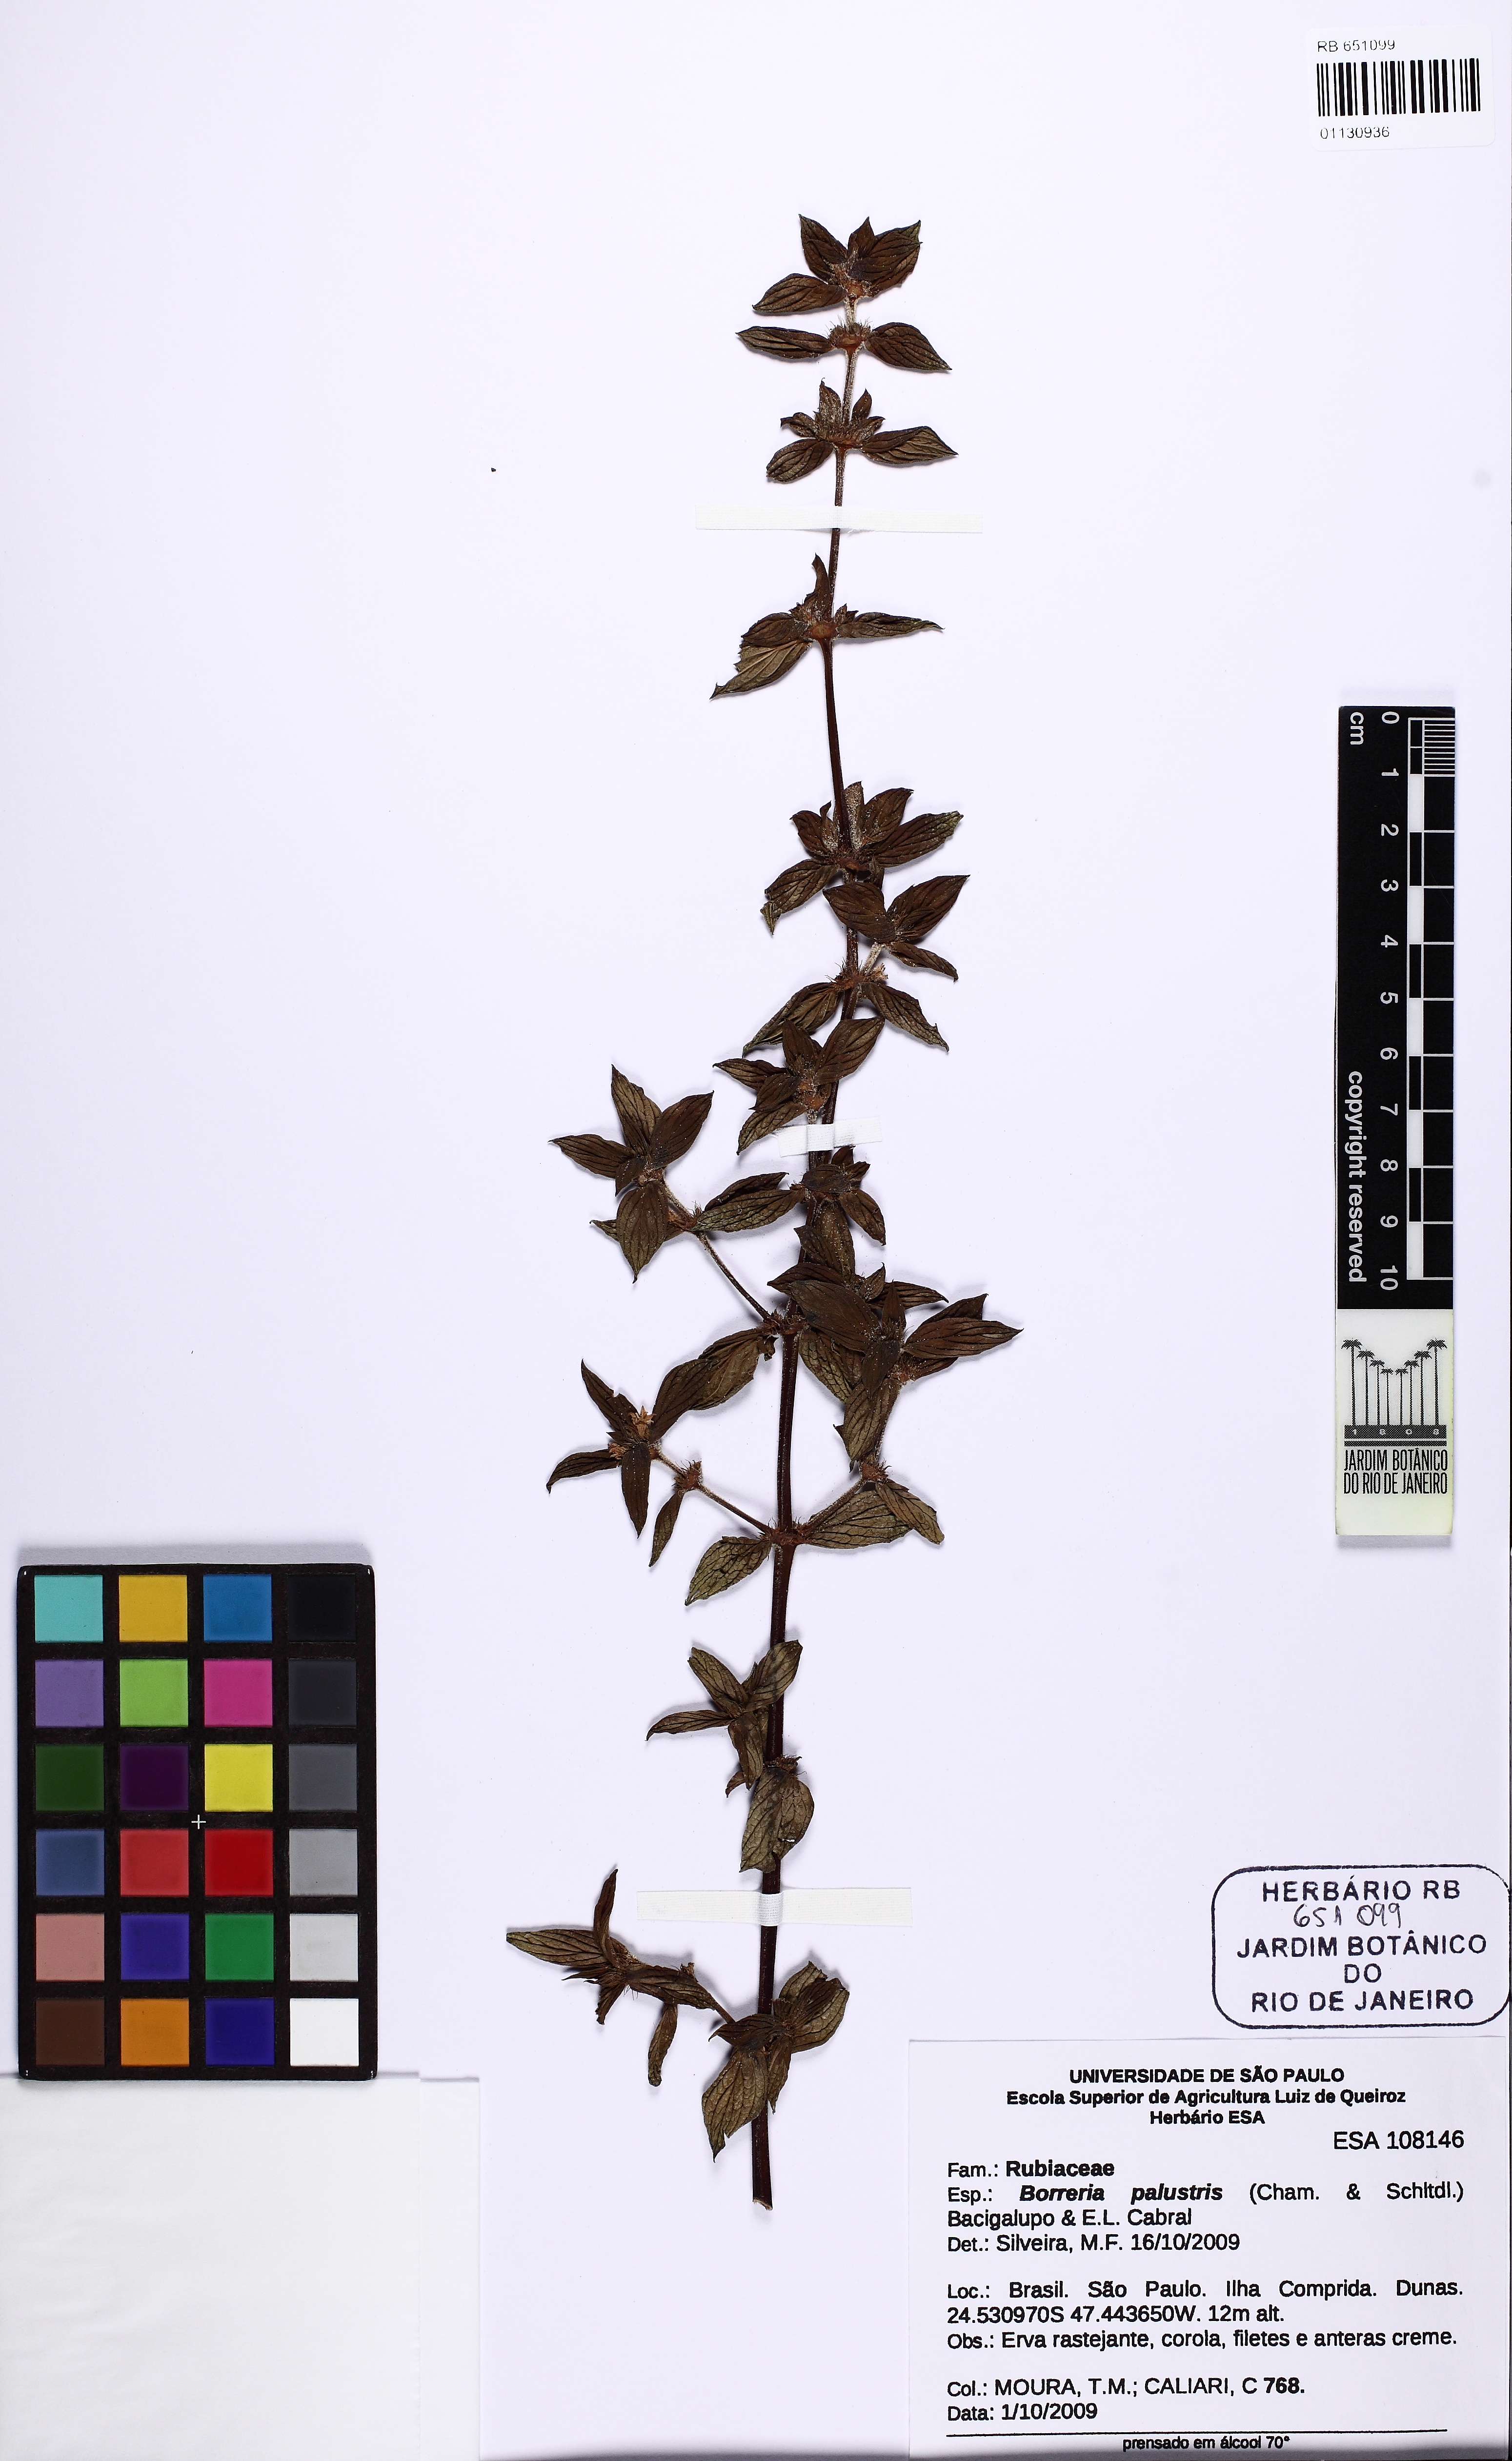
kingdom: Plantae
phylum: Tracheophyta
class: Magnoliopsida
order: Gentianales
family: Rubiaceae
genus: Galianthe
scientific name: Galianthe palustris
